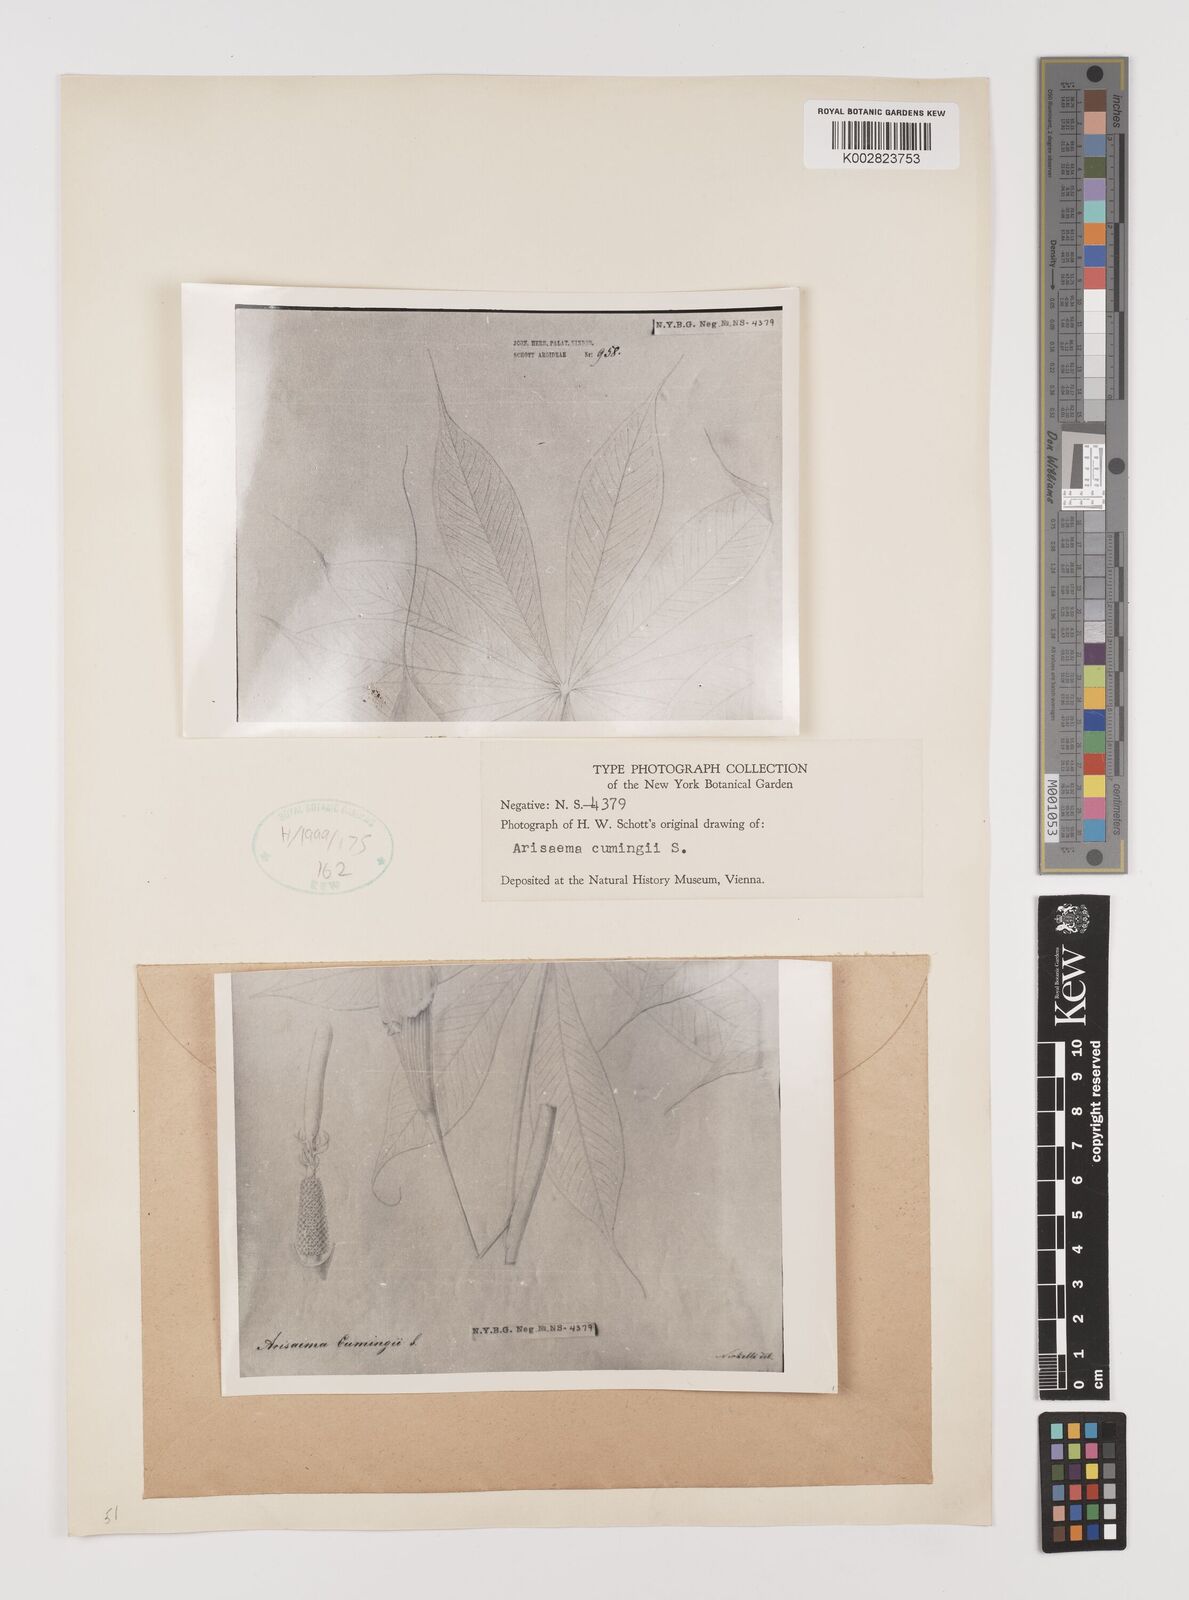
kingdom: Plantae
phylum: Tracheophyta
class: Liliopsida
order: Alismatales
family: Araceae
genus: Arisaema
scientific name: Arisaema polyphyllum
